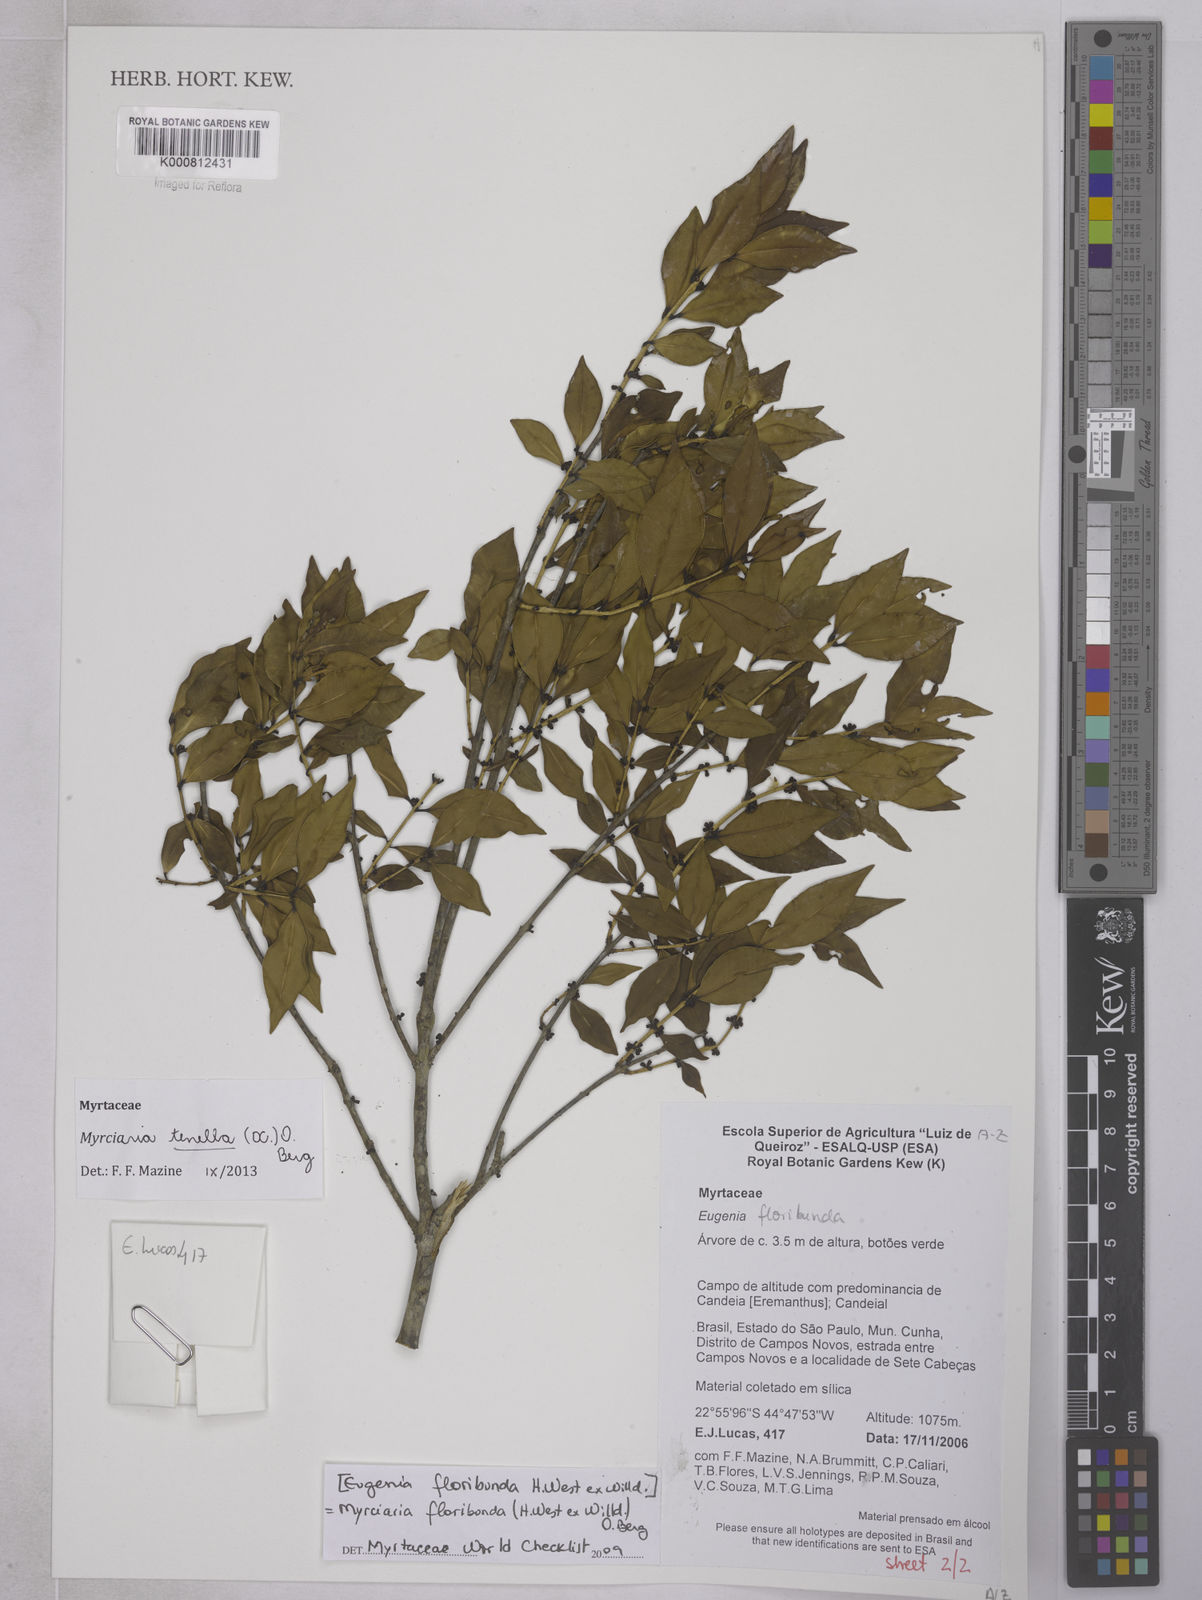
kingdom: Plantae
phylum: Tracheophyta
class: Magnoliopsida
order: Myrtales
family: Myrtaceae
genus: Myrciaria
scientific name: Myrciaria tenella
